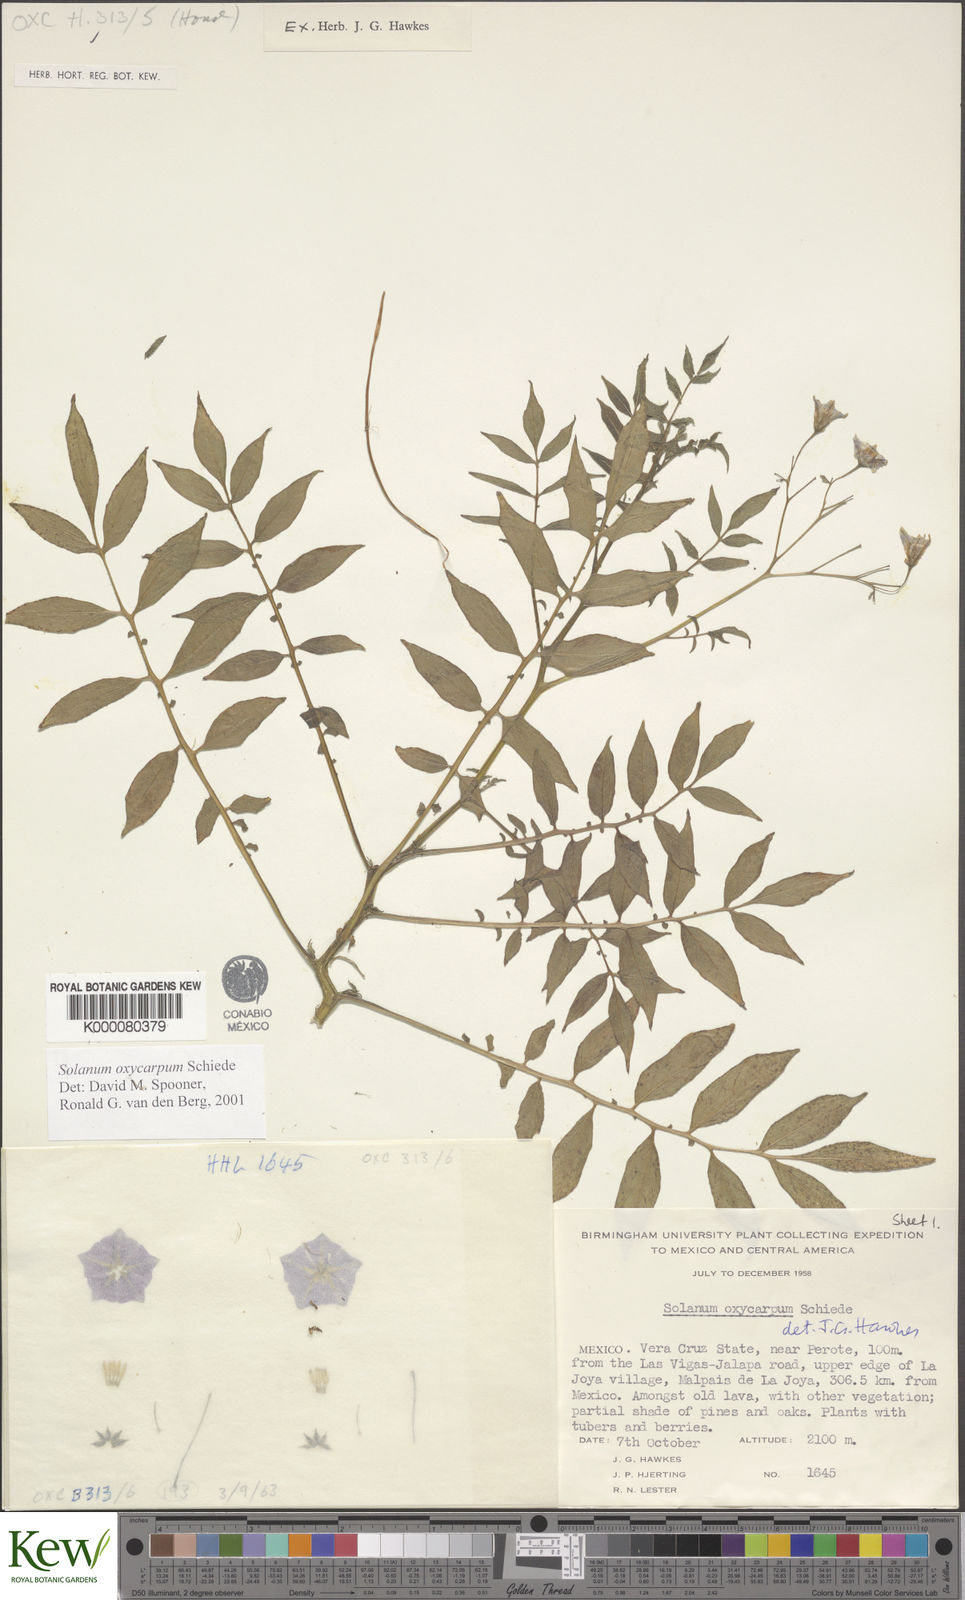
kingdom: Plantae
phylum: Tracheophyta
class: Magnoliopsida
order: Solanales
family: Solanaceae
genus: Solanum
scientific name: Solanum oxycarpum
